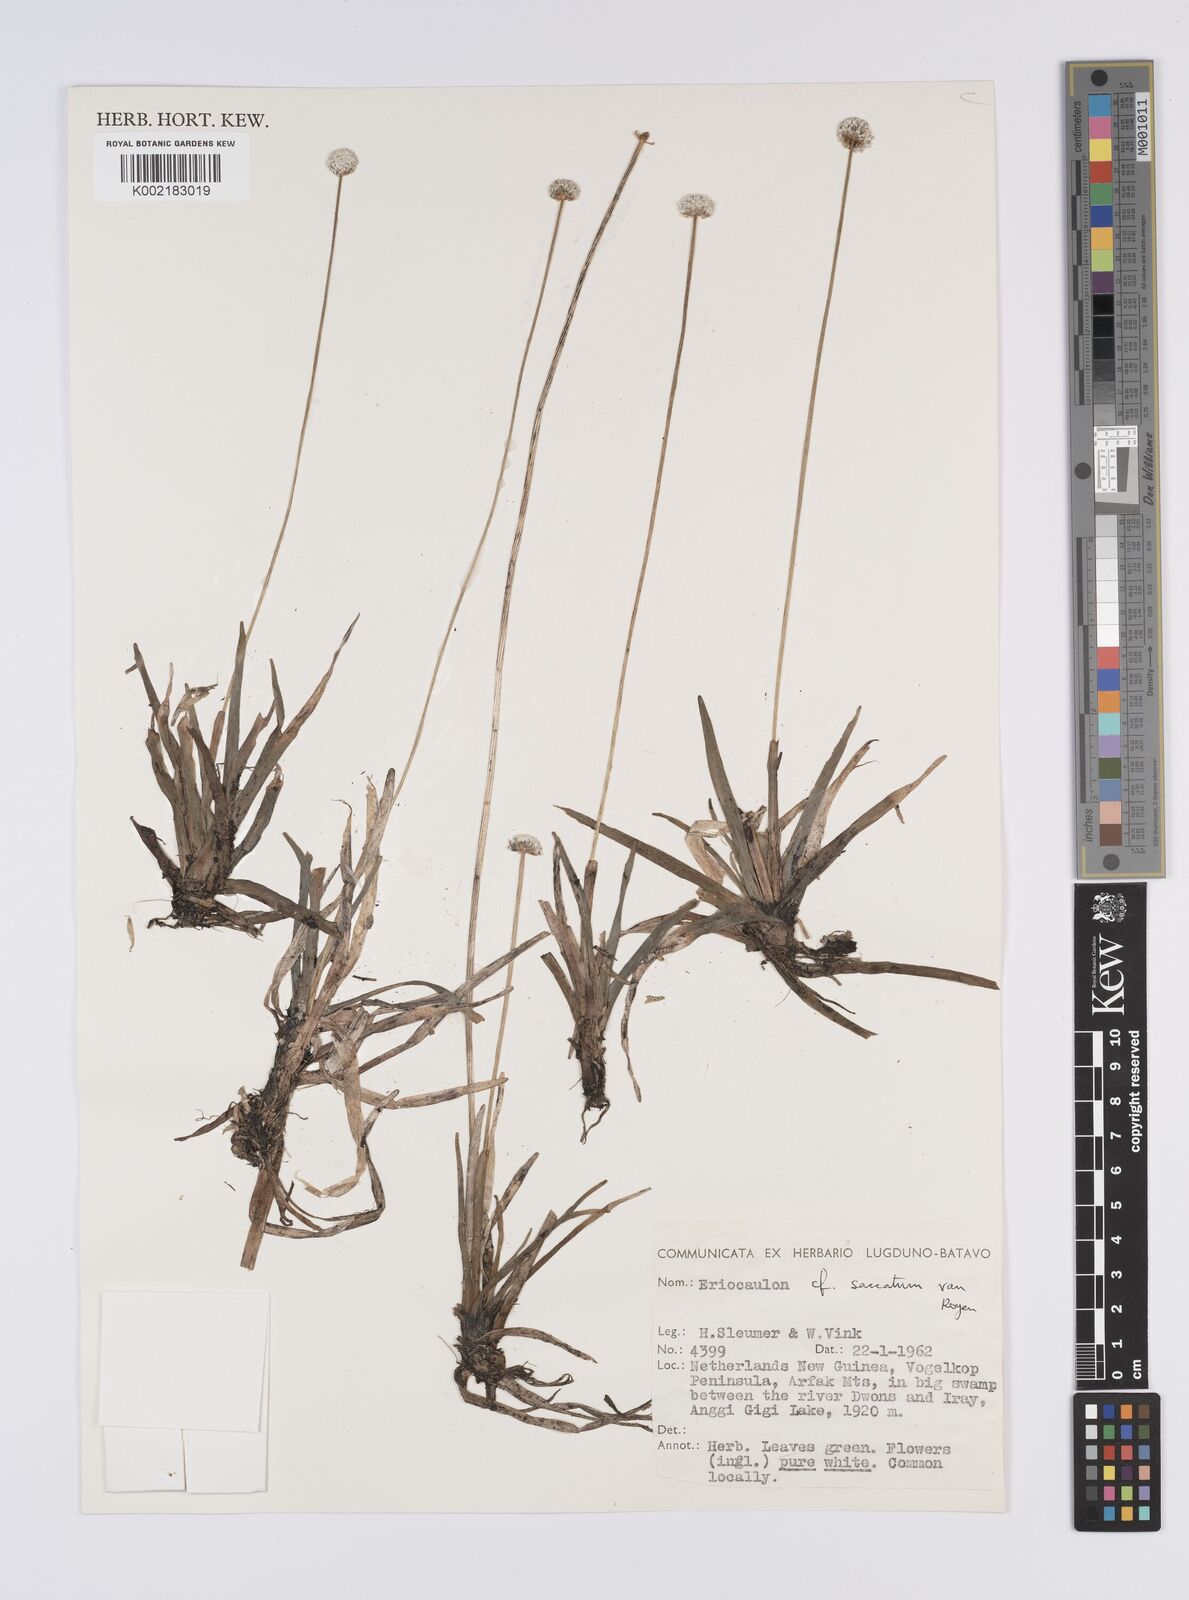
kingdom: Plantae
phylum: Tracheophyta
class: Liliopsida
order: Poales
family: Eriocaulaceae
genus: Eriocaulon
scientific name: Eriocaulon saccatum
